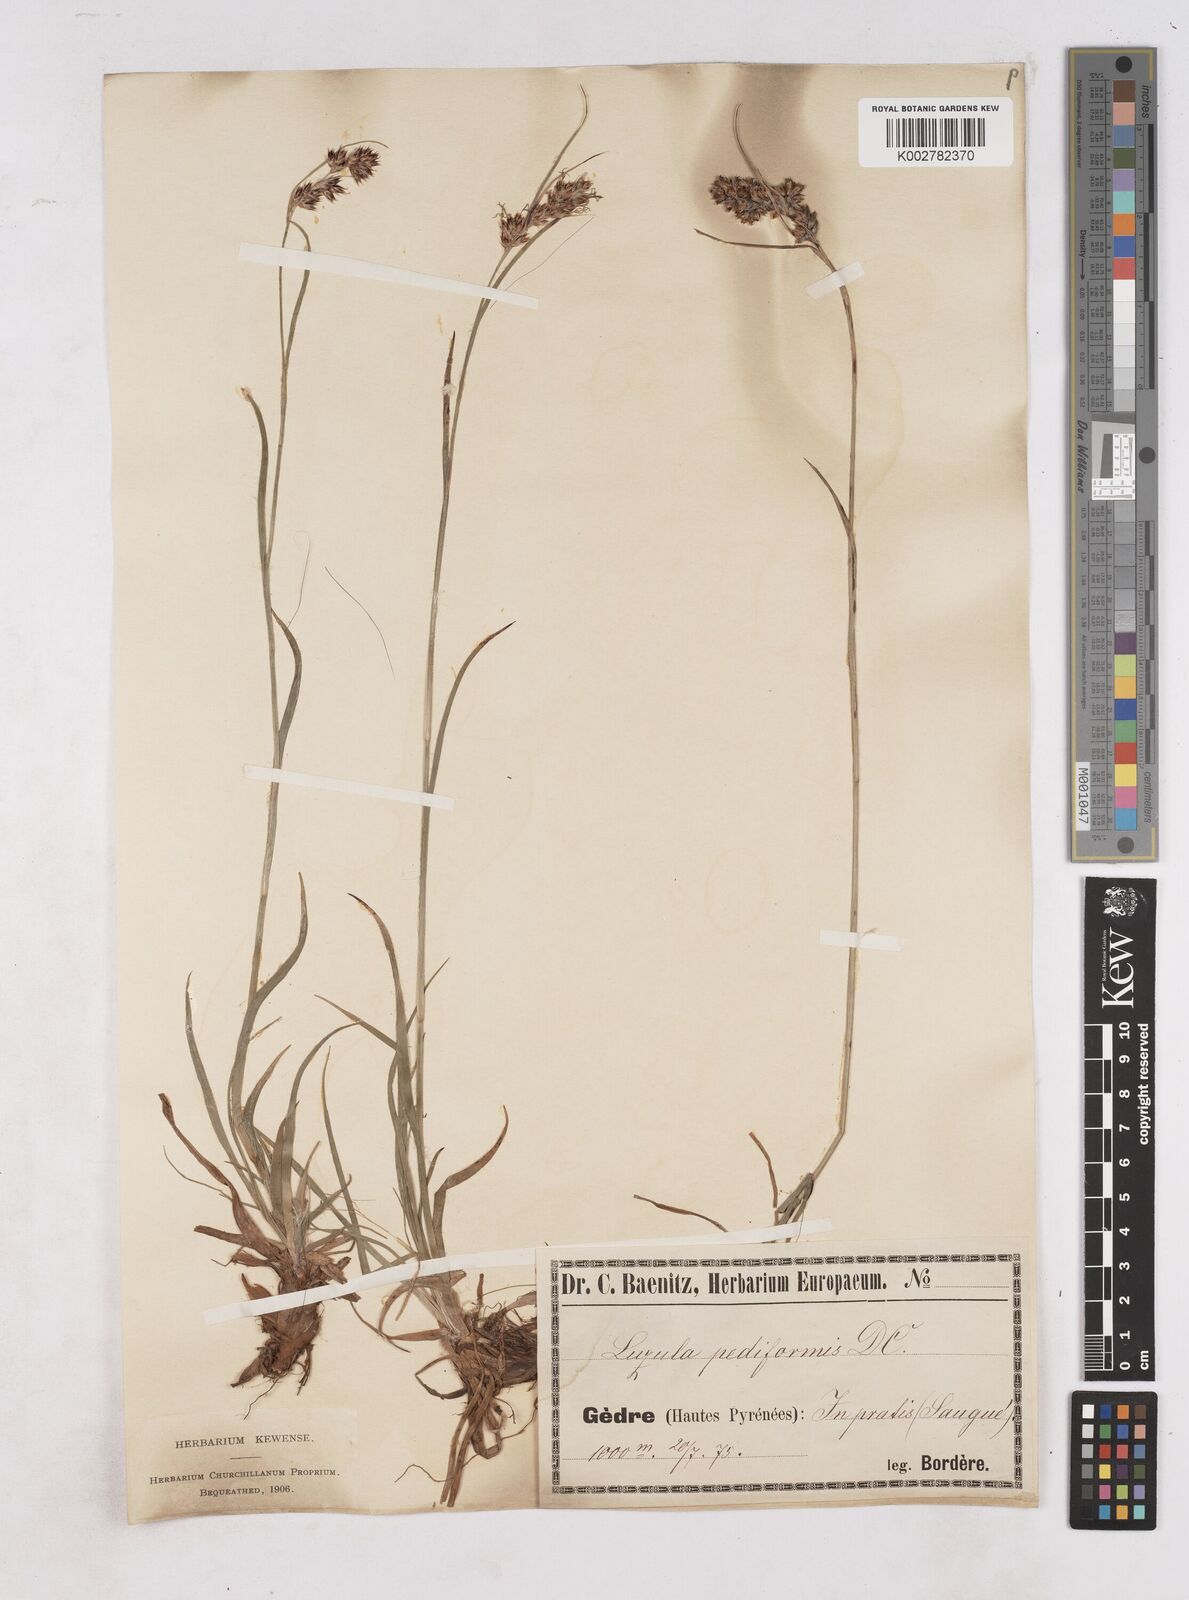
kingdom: Plantae
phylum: Tracheophyta
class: Liliopsida
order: Poales
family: Juncaceae
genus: Luzula
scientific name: Luzula pediformis
